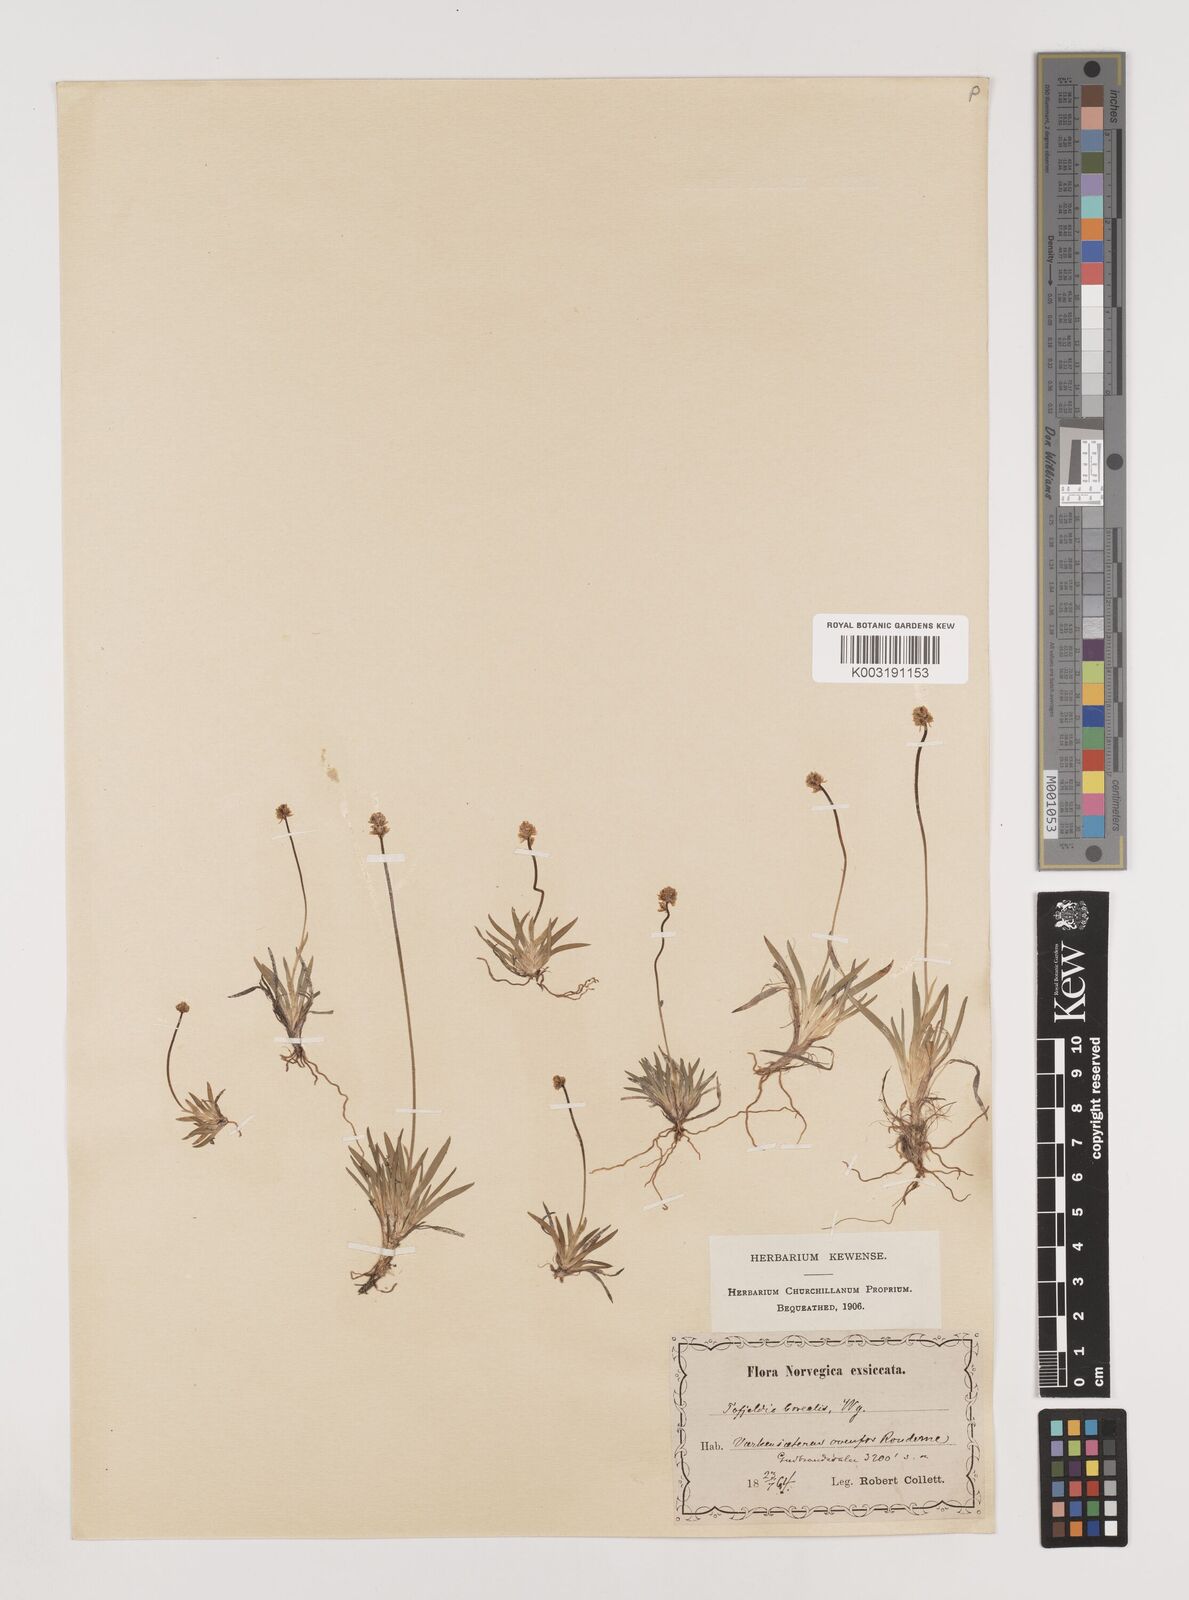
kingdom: Plantae
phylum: Tracheophyta
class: Liliopsida
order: Alismatales
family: Tofieldiaceae
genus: Tofieldia
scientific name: Tofieldia pusilla
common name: Scottish false asphodel
